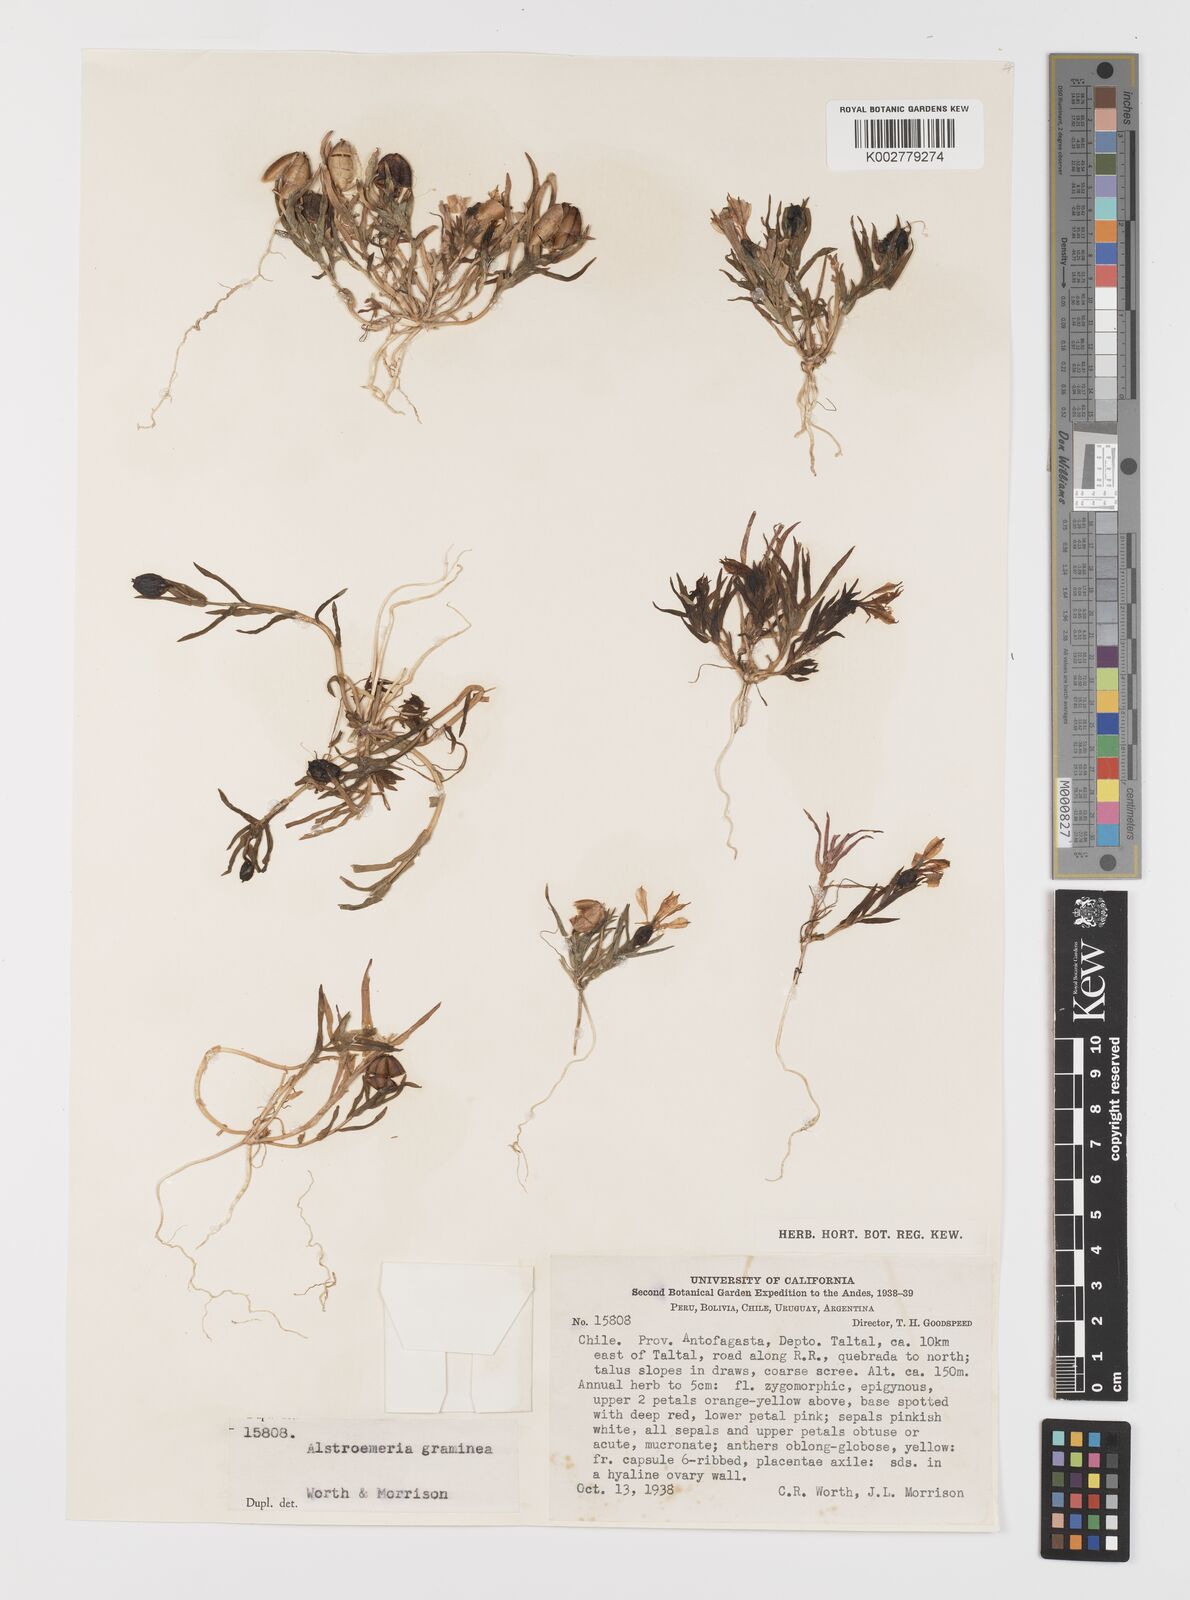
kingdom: Plantae
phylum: Tracheophyta
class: Liliopsida
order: Liliales
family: Alstroemeriaceae
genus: Alstroemeria
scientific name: Alstroemeria graminea
